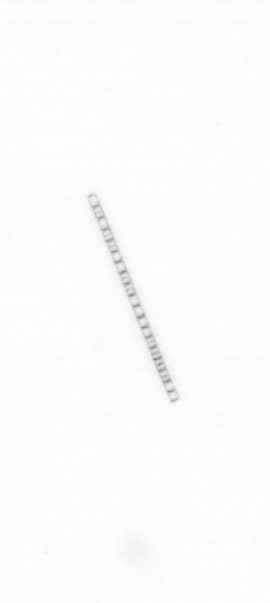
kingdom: Chromista
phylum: Ochrophyta
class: Bacillariophyceae
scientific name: Bacillariophyceae
